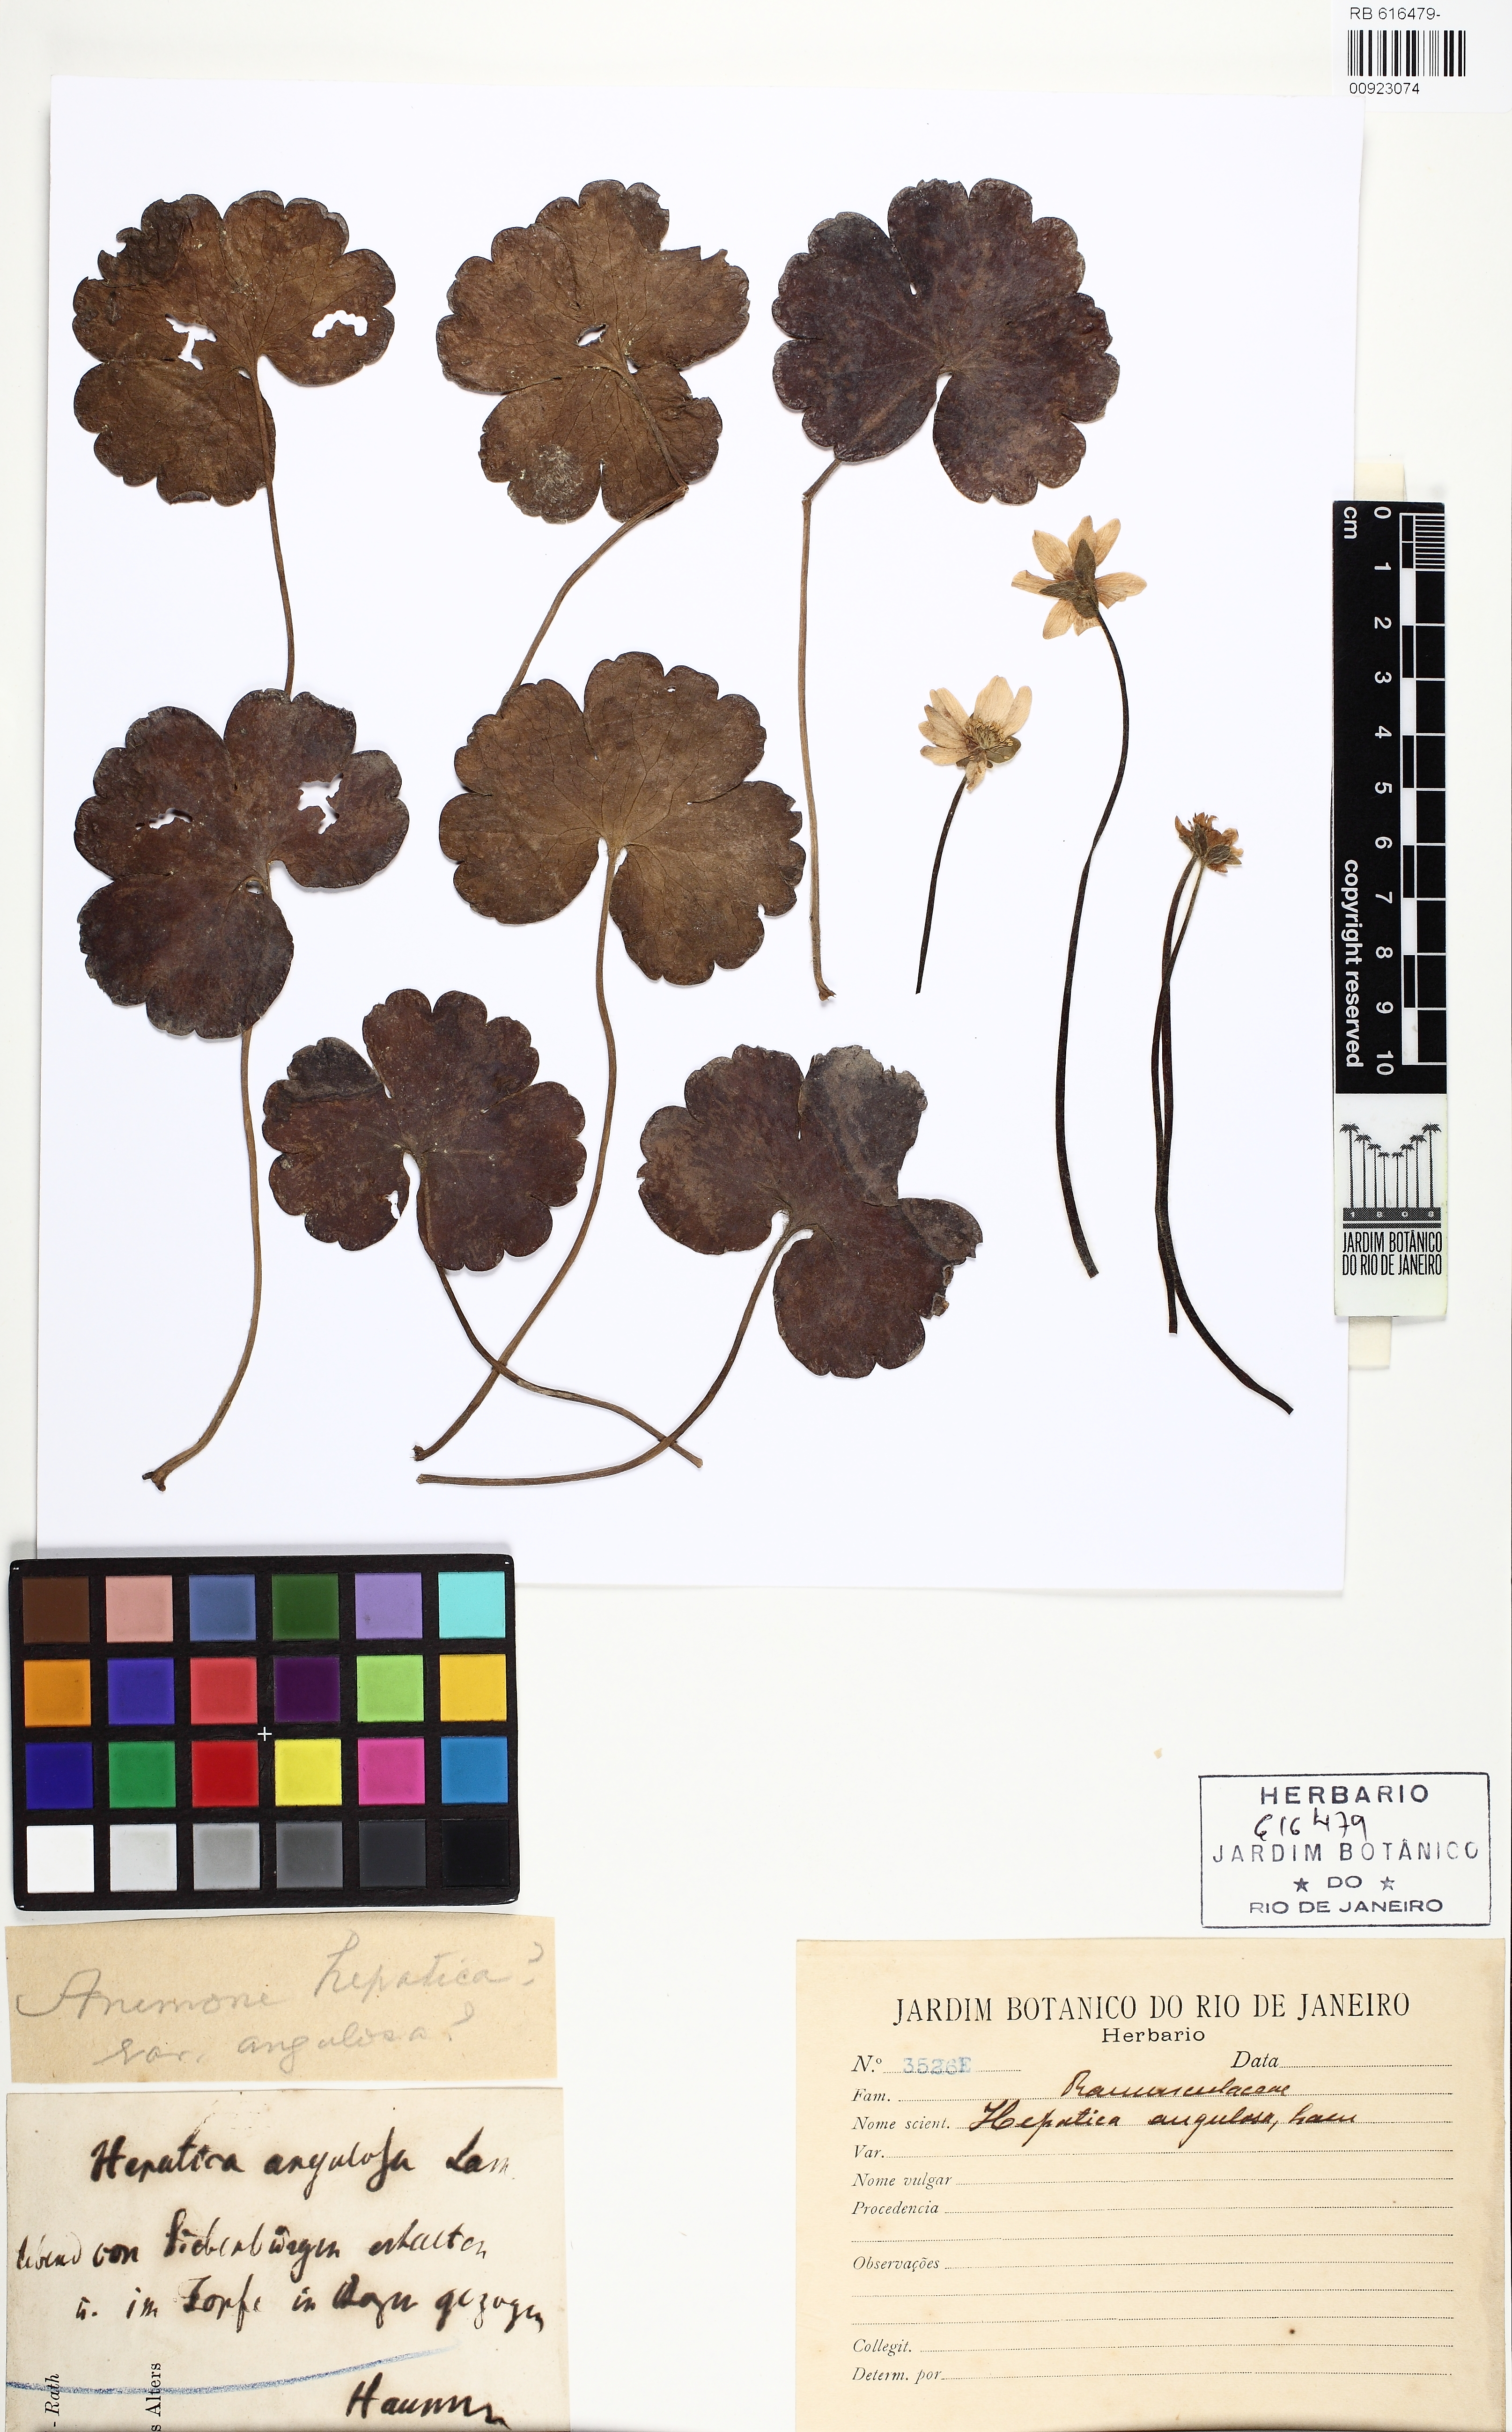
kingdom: Plantae
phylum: Tracheophyta
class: Magnoliopsida
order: Ranunculales
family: Ranunculaceae
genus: Hepatica
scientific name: Hepatica nobilis
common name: Liverleaf
